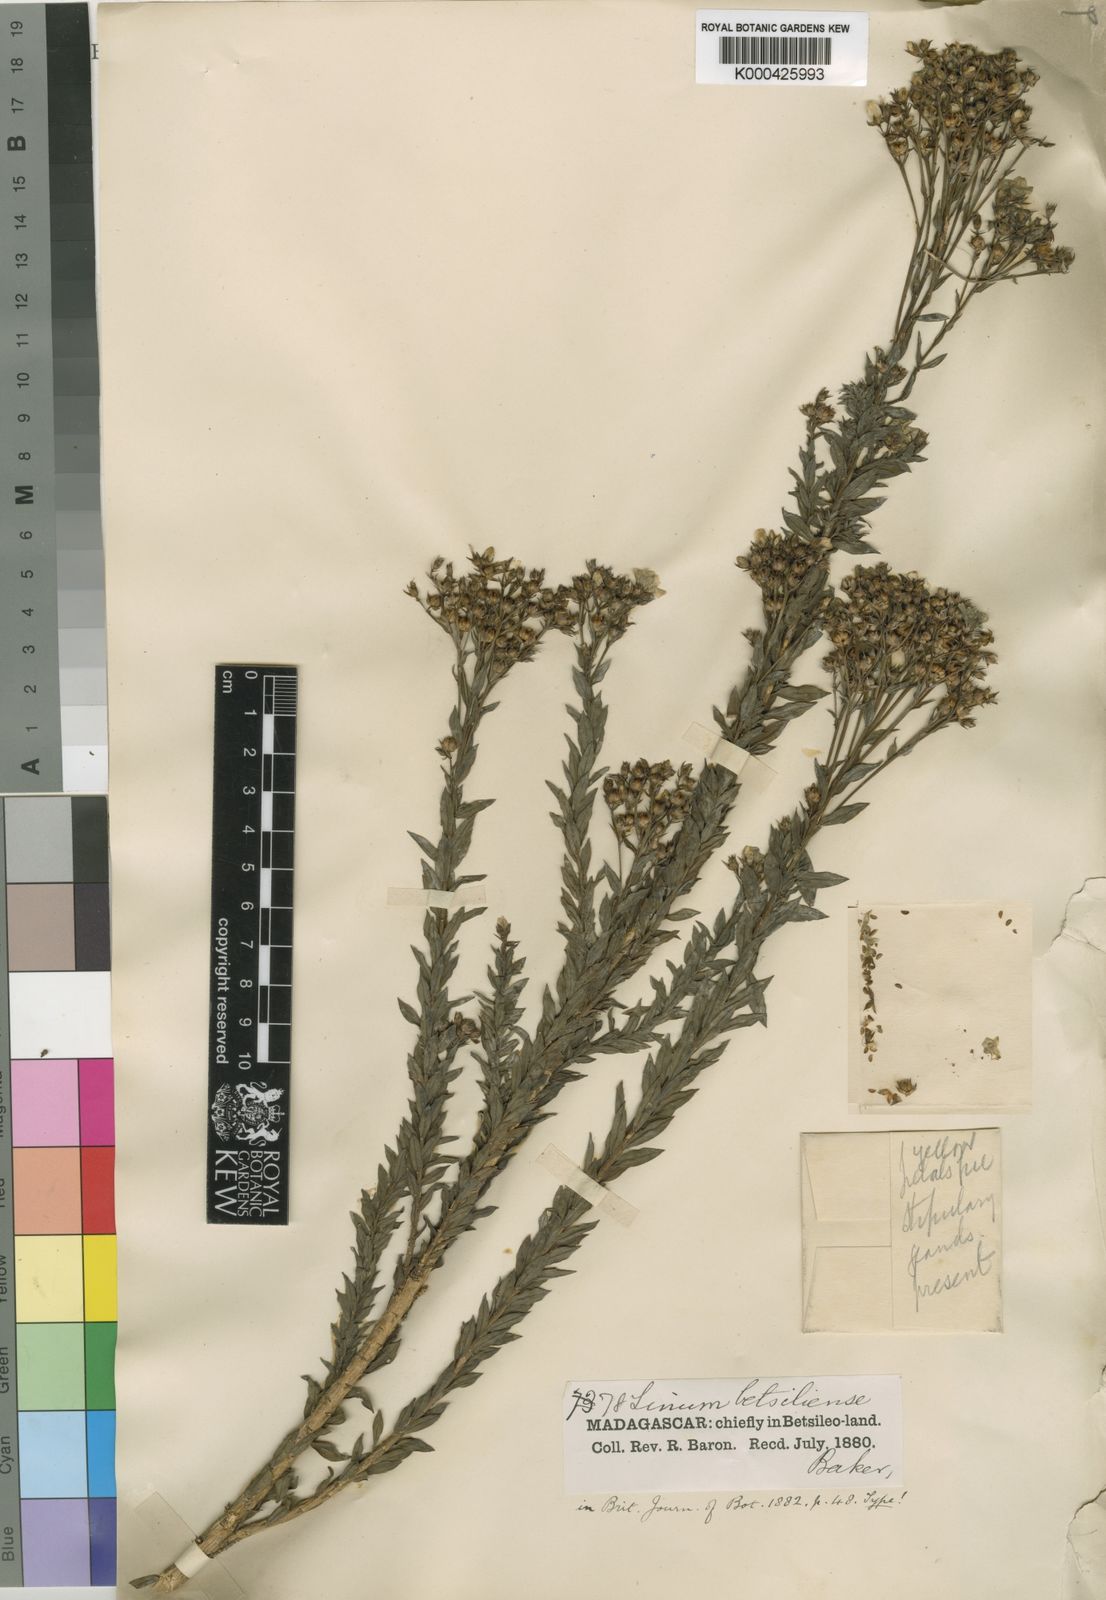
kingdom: Plantae
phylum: Tracheophyta
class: Magnoliopsida
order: Malpighiales
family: Linaceae
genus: Linum
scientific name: Linum betsiliense
